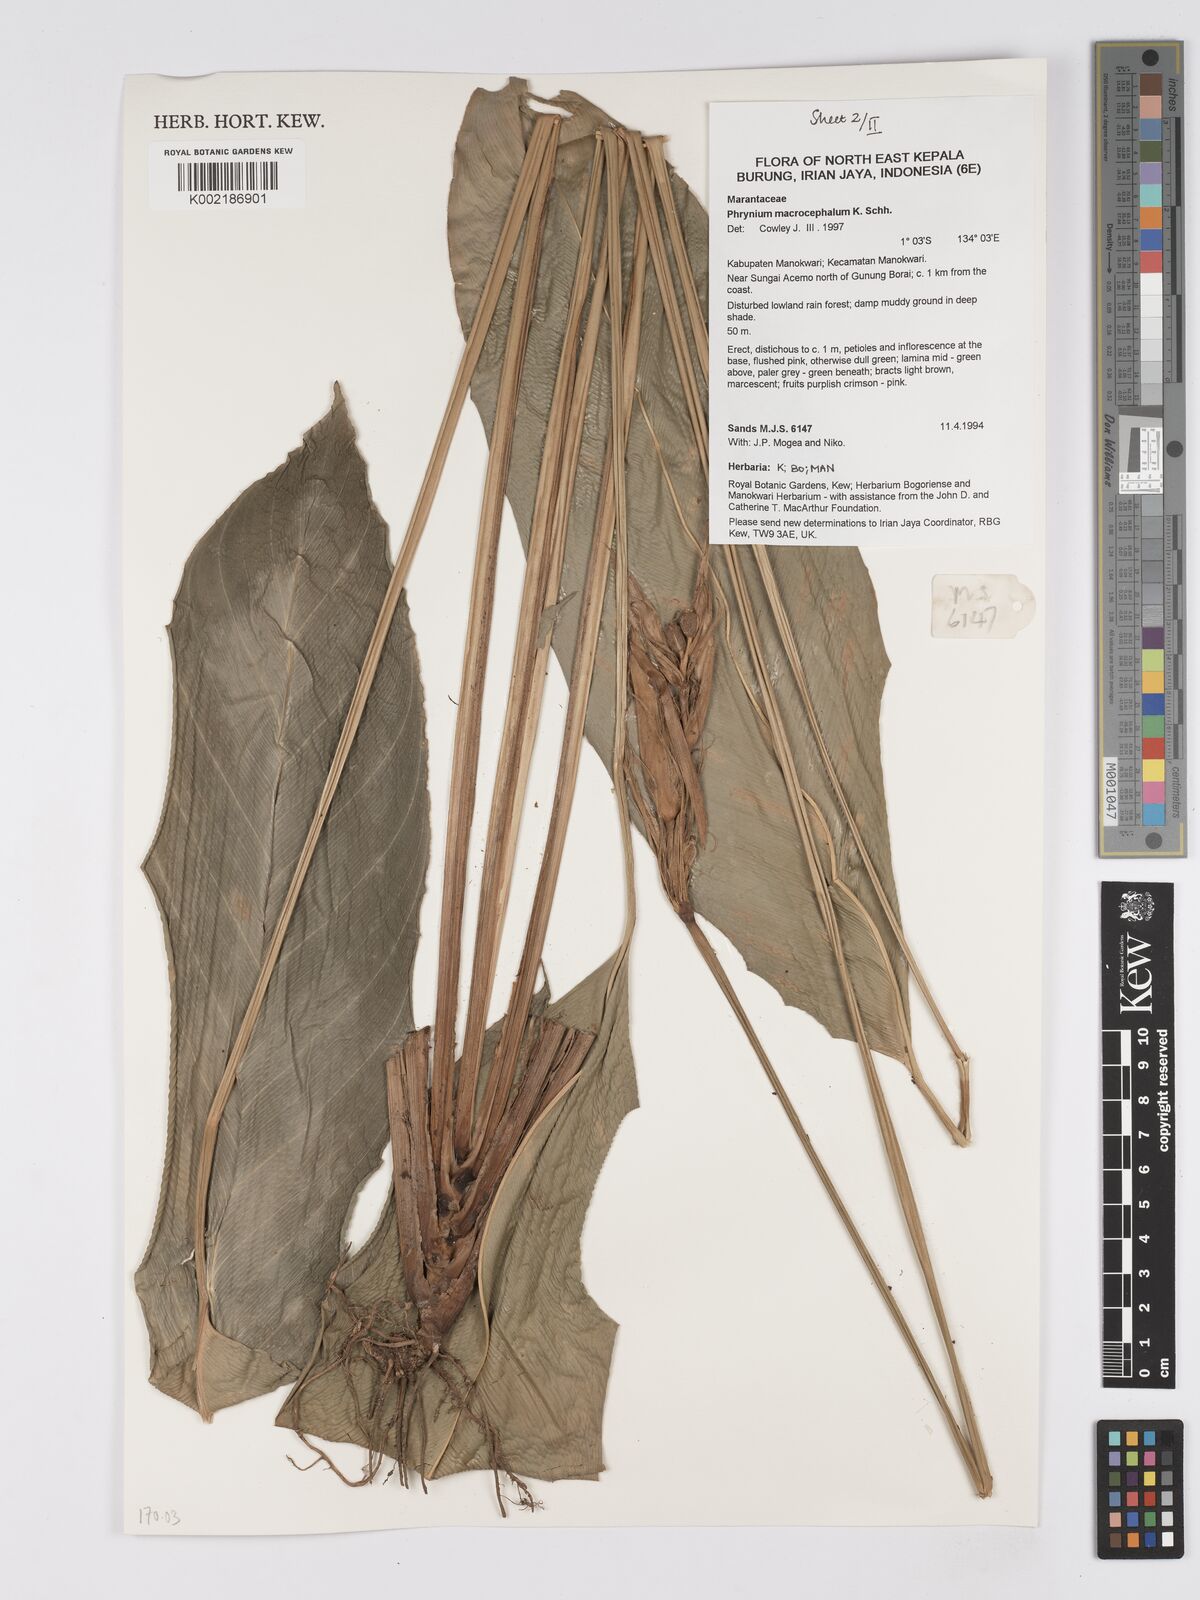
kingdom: Plantae
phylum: Tracheophyta
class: Liliopsida
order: Zingiberales
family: Marantaceae
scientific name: Marantaceae
